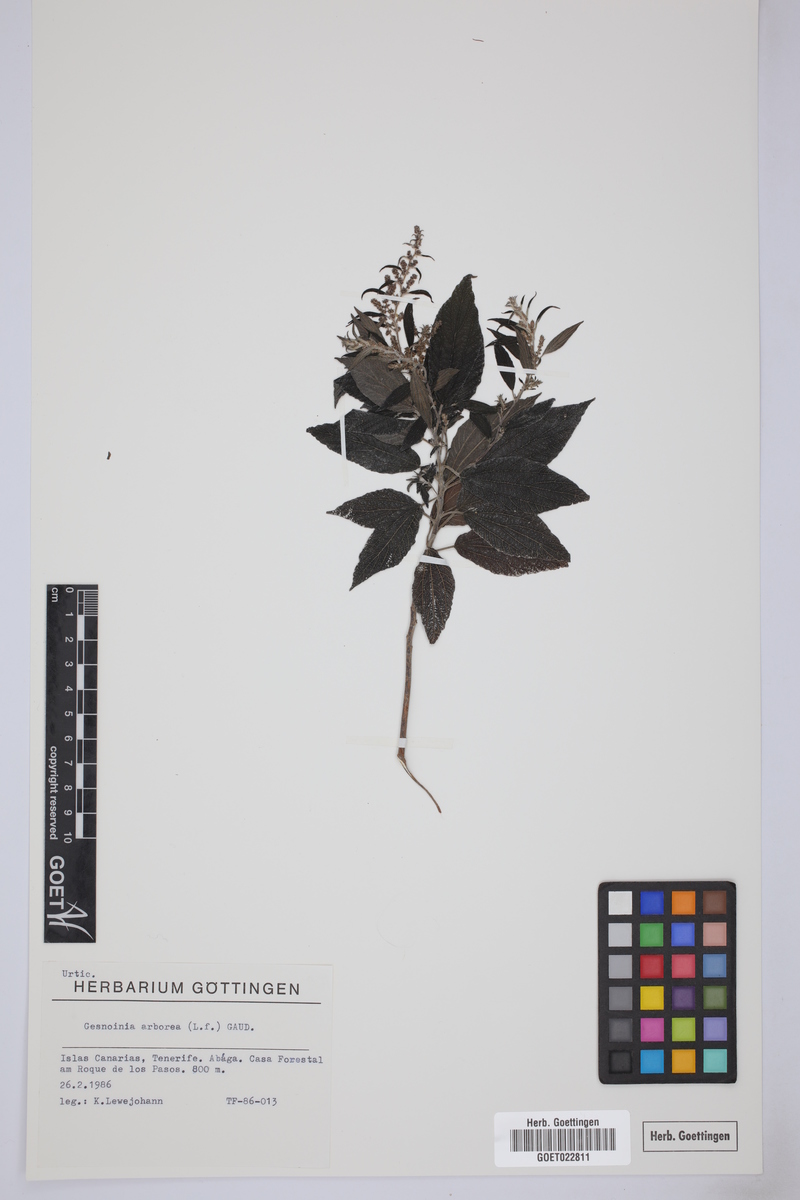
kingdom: Plantae
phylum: Tracheophyta
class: Magnoliopsida
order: Rosales
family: Urticaceae
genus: Gesnouinia
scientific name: Gesnouinia arborea
